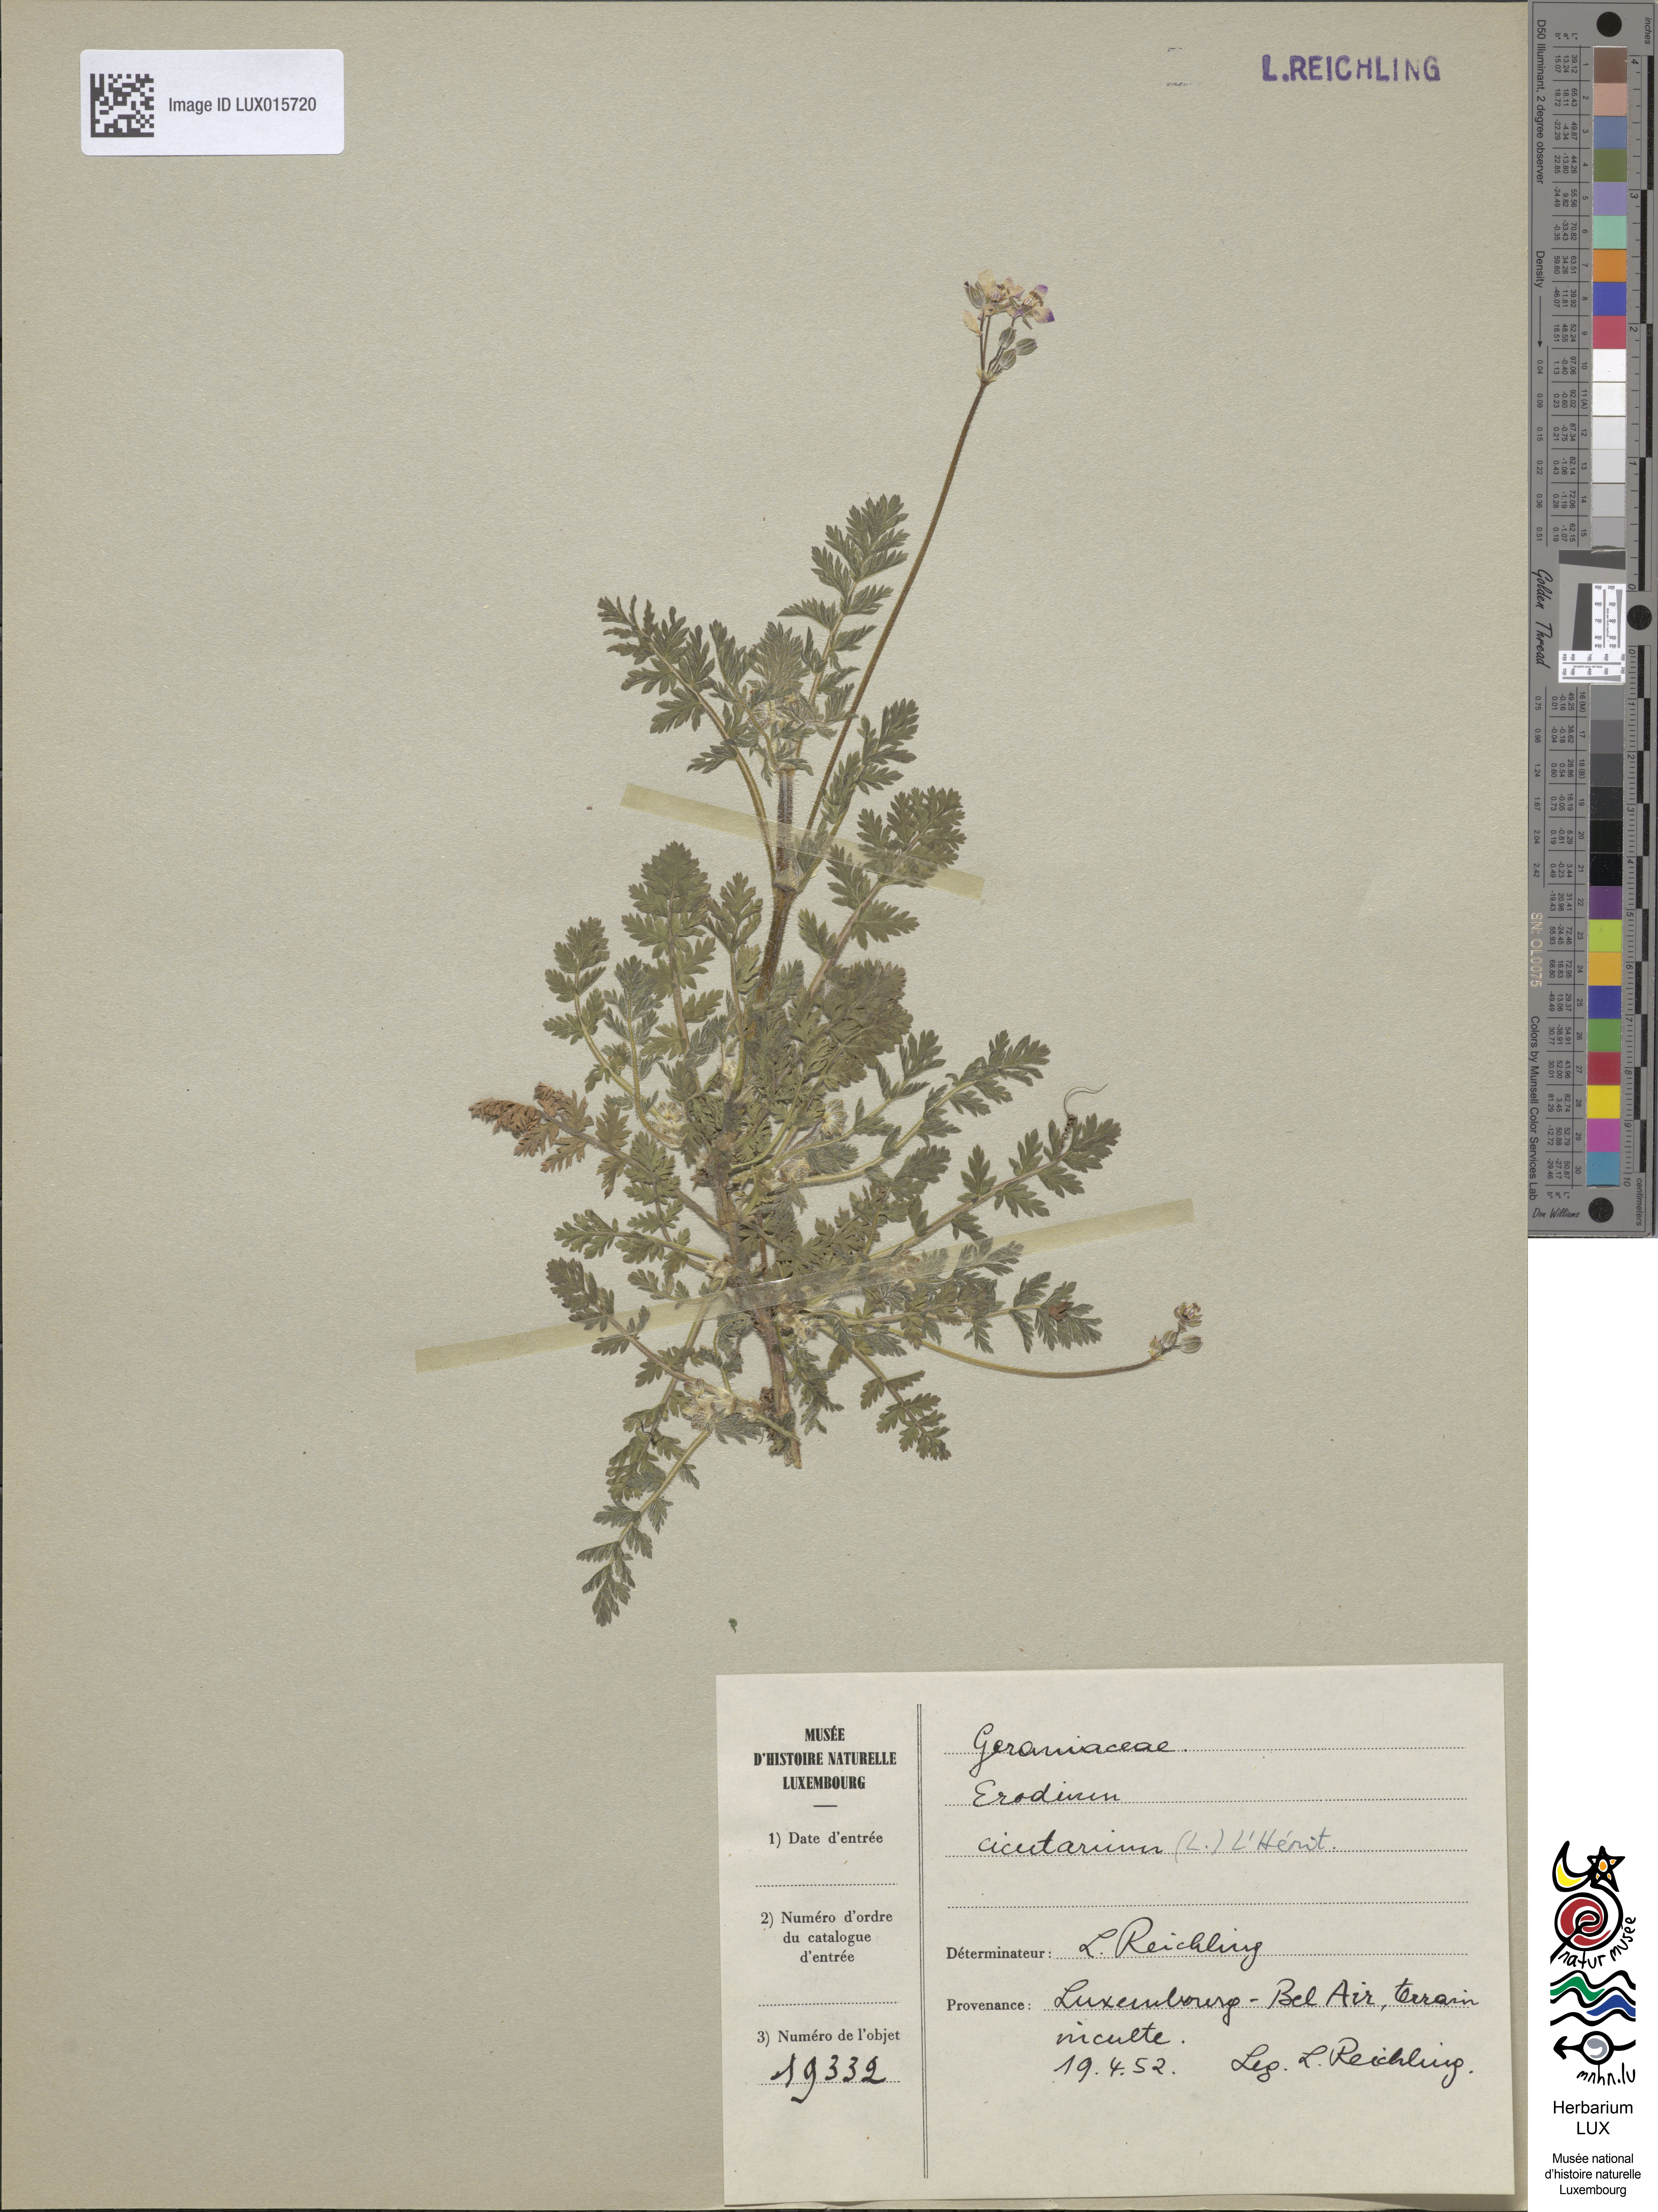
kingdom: Plantae
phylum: Tracheophyta
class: Magnoliopsida
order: Geraniales
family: Geraniaceae
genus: Erodium
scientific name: Erodium cicutarium
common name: Common stork's-bill
